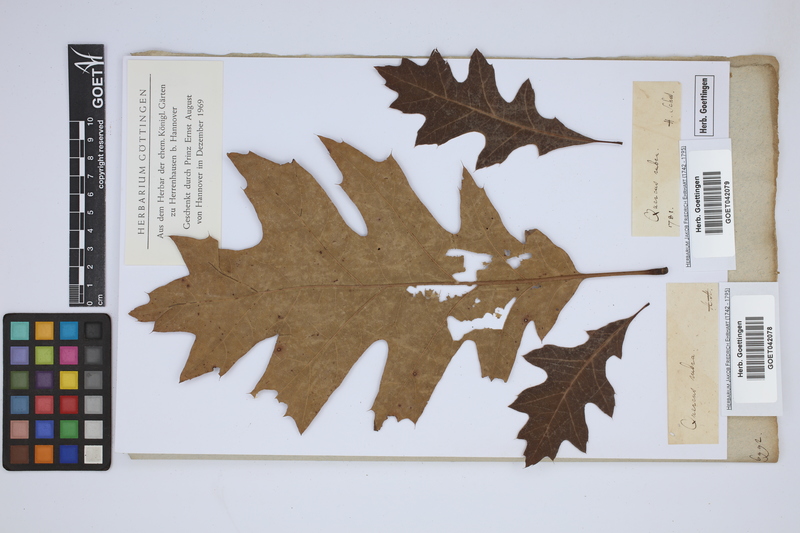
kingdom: Plantae
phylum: Tracheophyta
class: Magnoliopsida
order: Fagales
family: Fagaceae
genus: Quercus
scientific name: Quercus rubra
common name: Red oak
